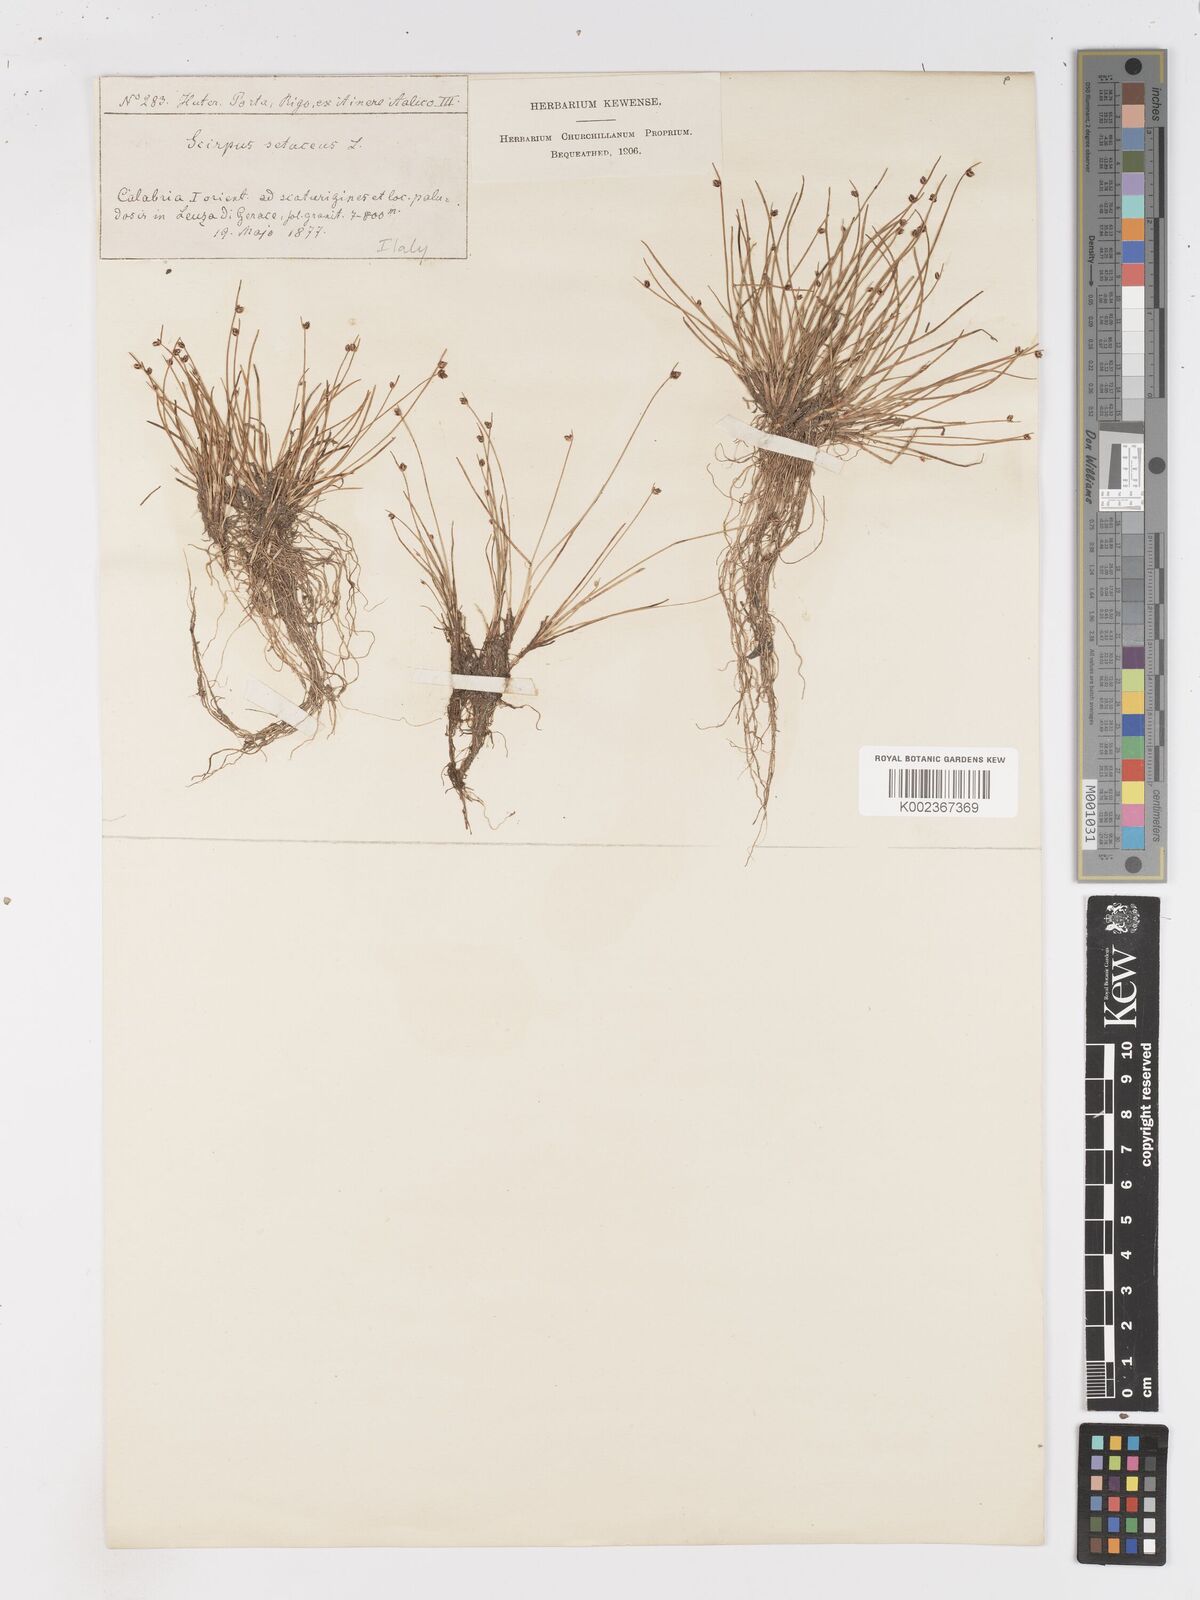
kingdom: Plantae
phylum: Tracheophyta
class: Liliopsida
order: Poales
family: Cyperaceae
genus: Isolepis
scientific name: Isolepis cernua
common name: Slender club-rush
